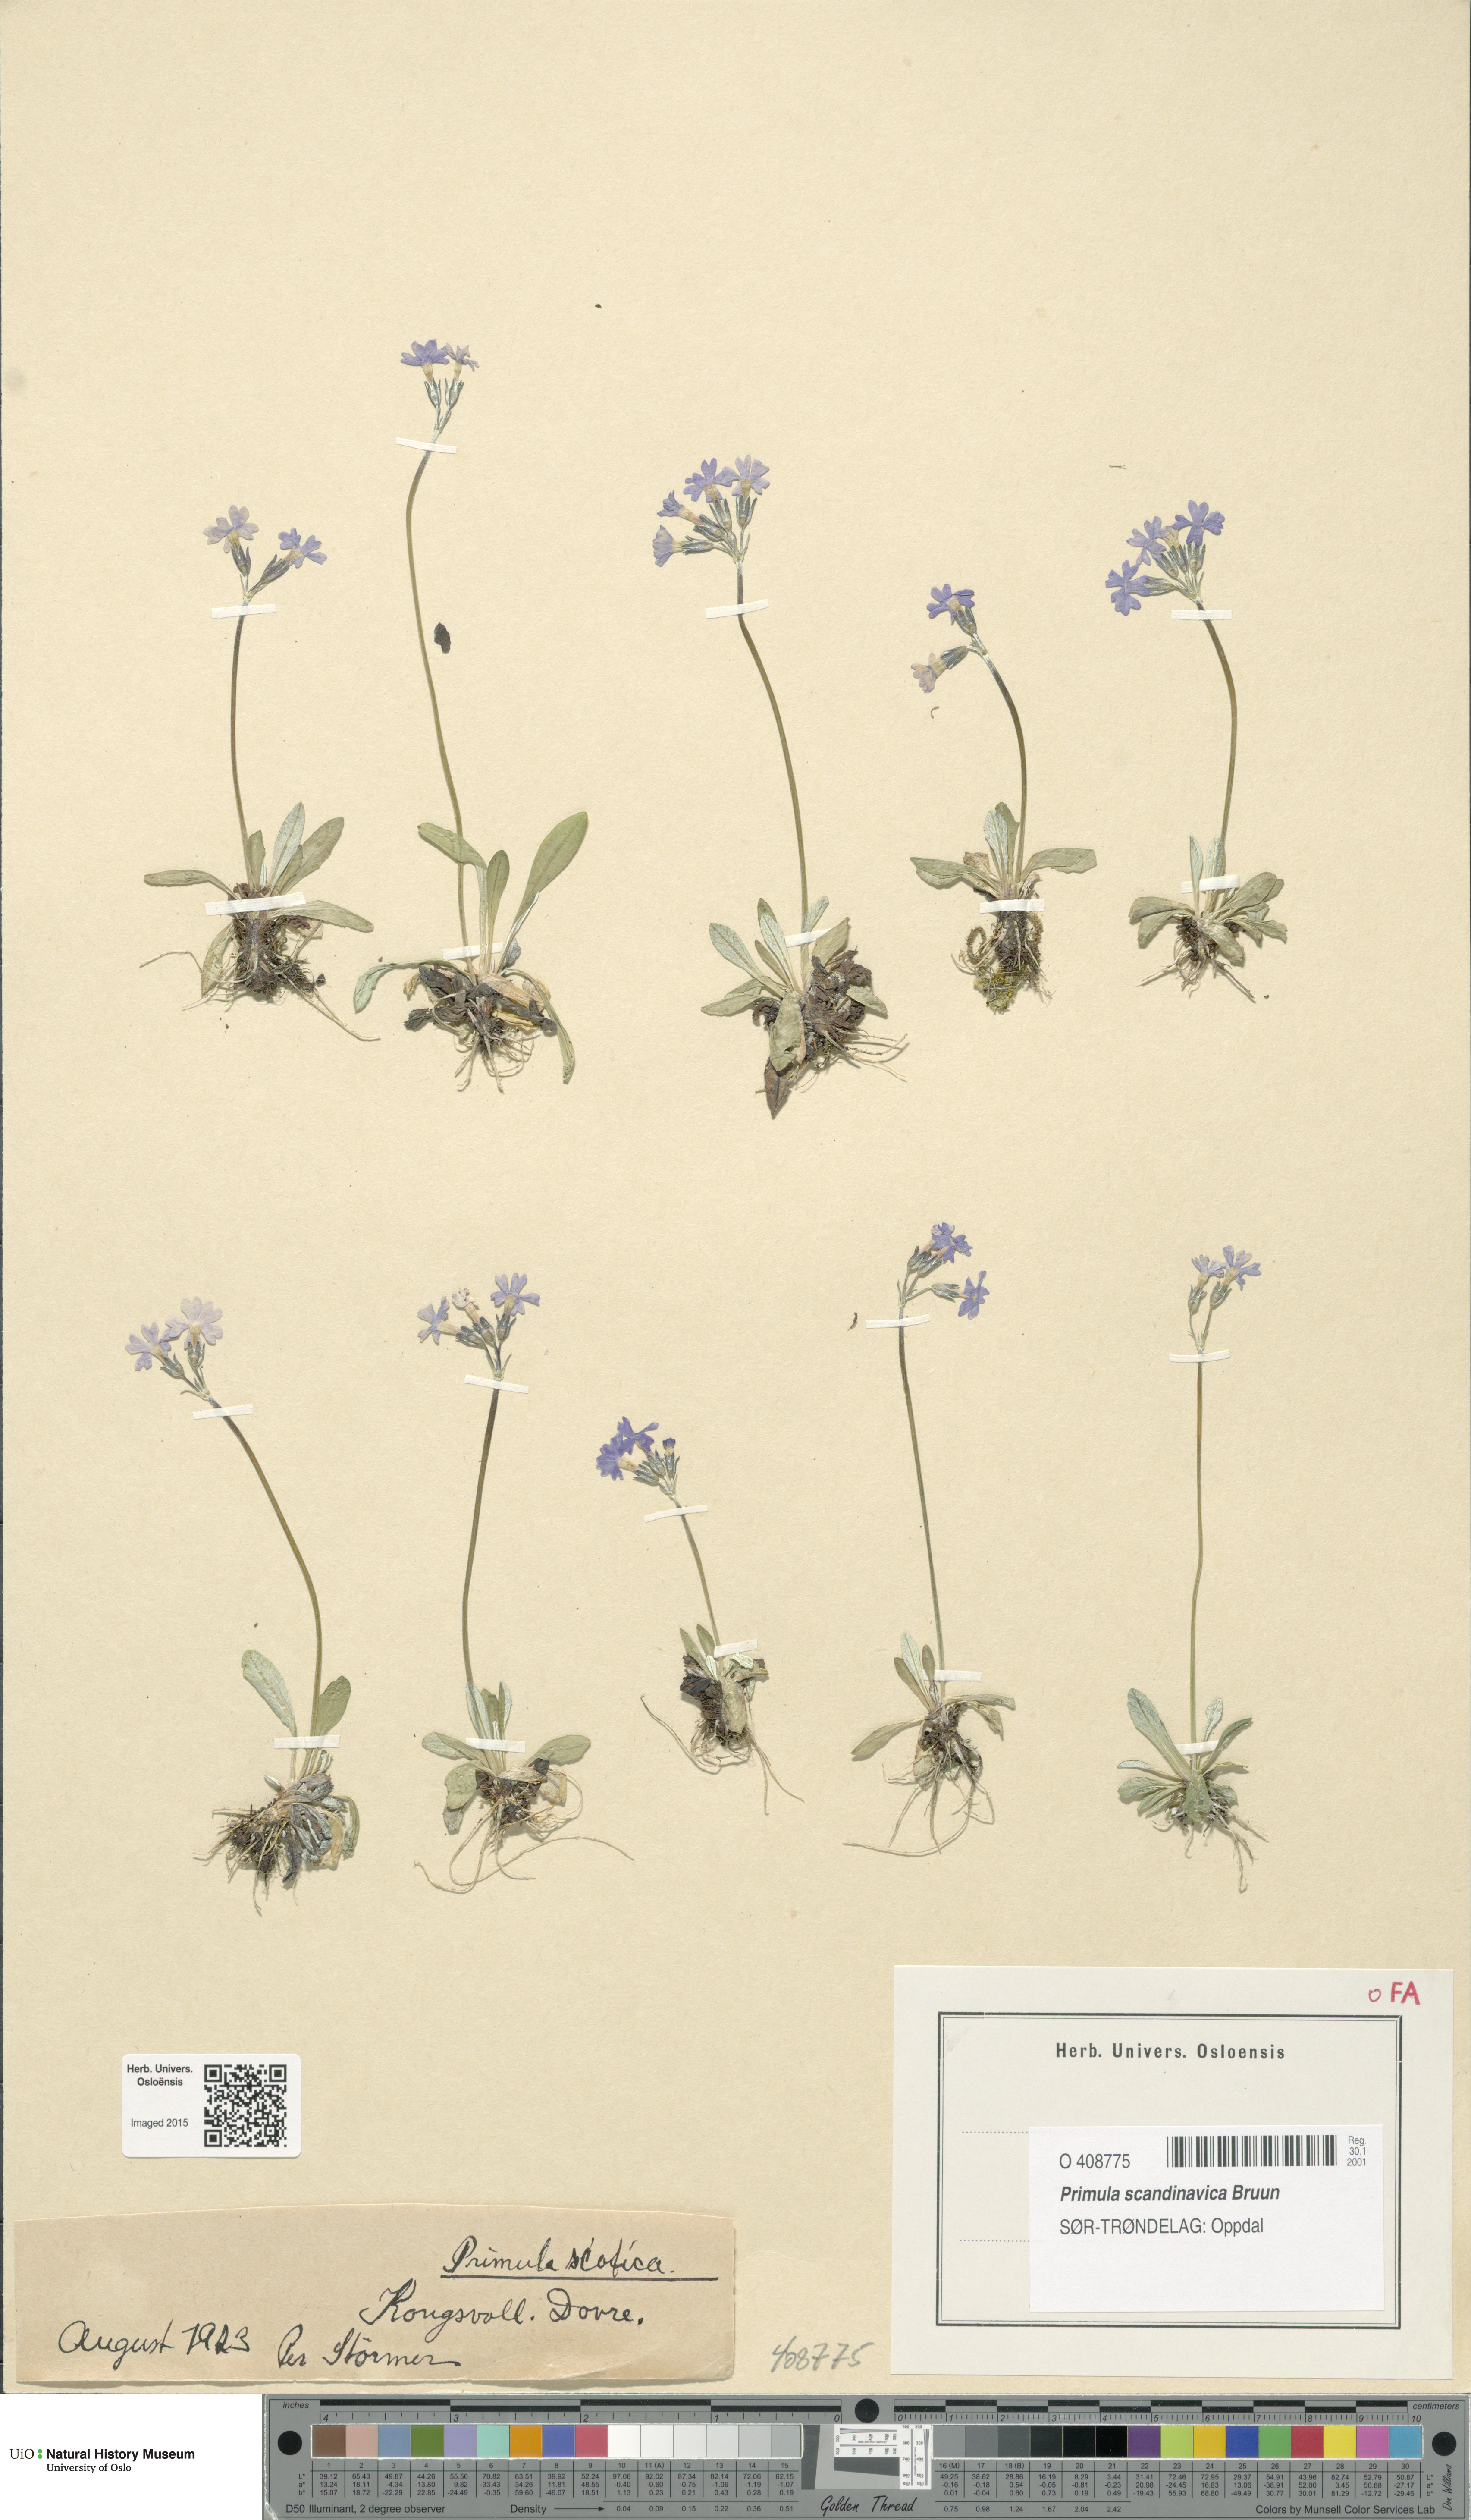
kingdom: Plantae
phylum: Tracheophyta
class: Magnoliopsida
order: Ericales
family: Primulaceae
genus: Primula
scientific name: Primula scandinavica
